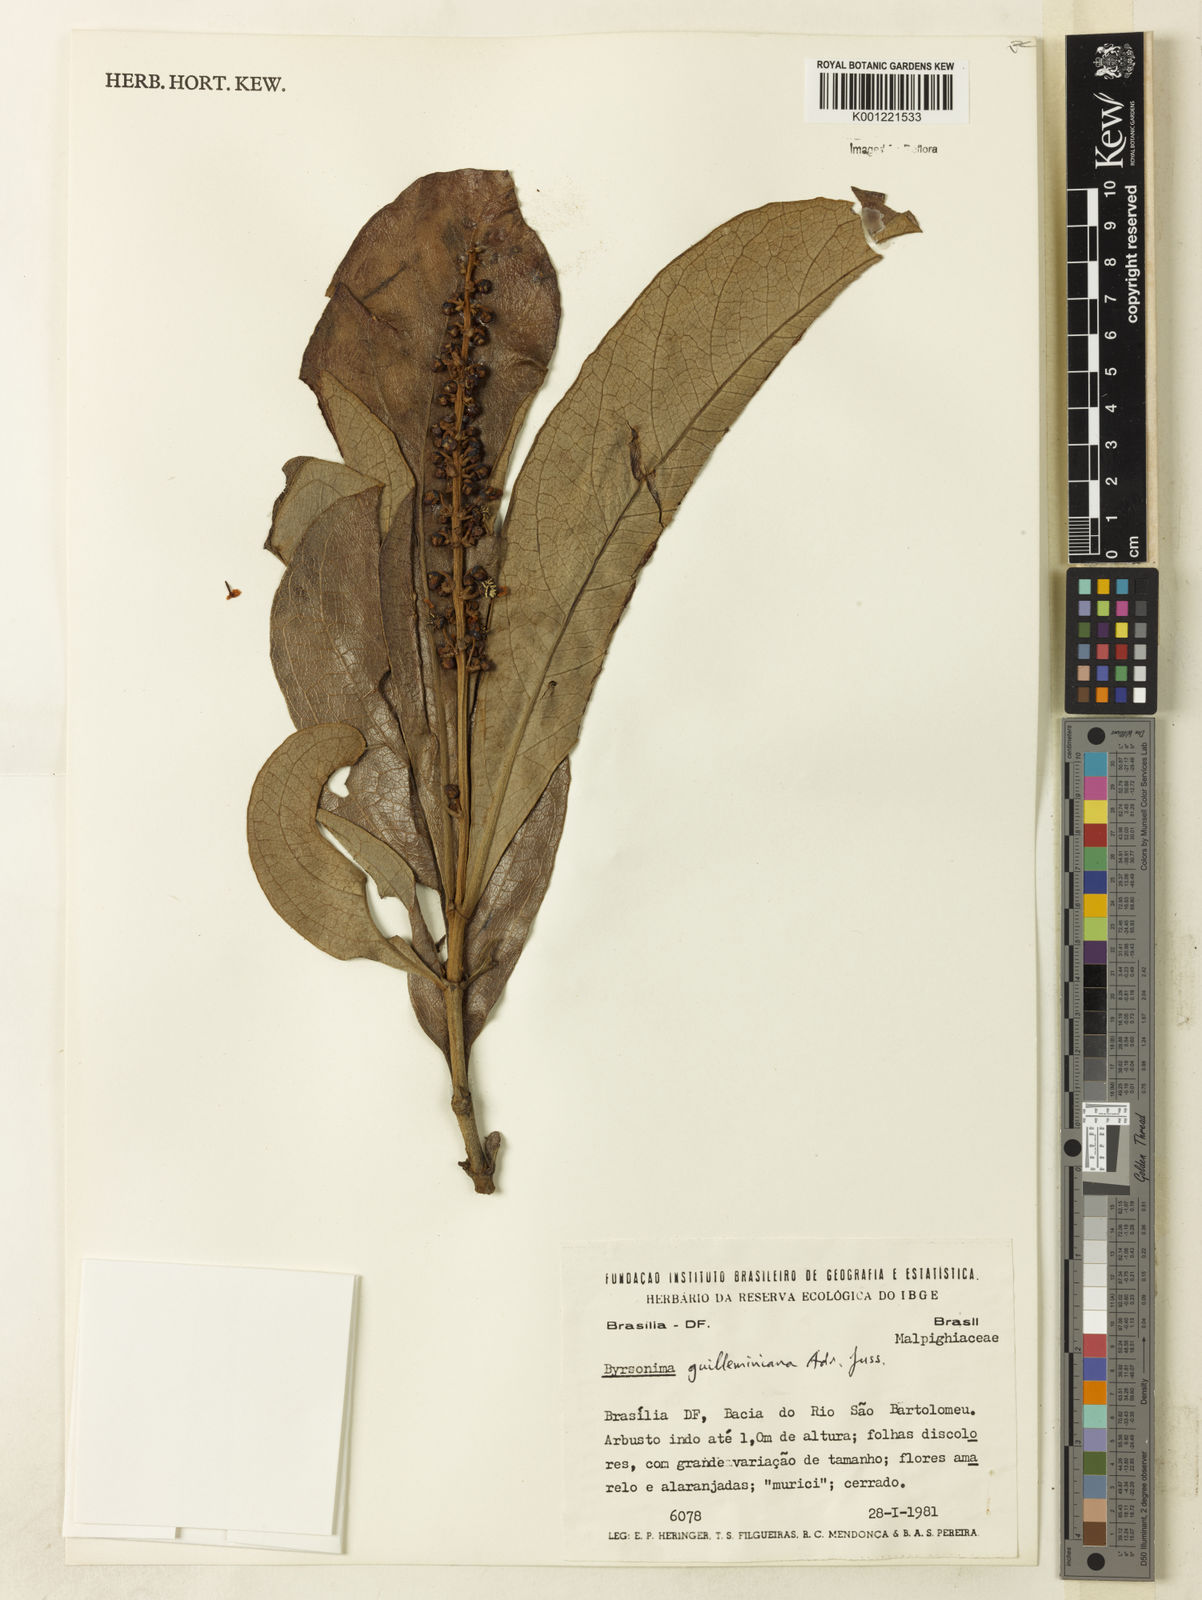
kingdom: Plantae
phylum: Tracheophyta
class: Magnoliopsida
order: Malpighiales
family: Malpighiaceae
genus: Byrsonima
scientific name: Byrsonima guilleminiana
